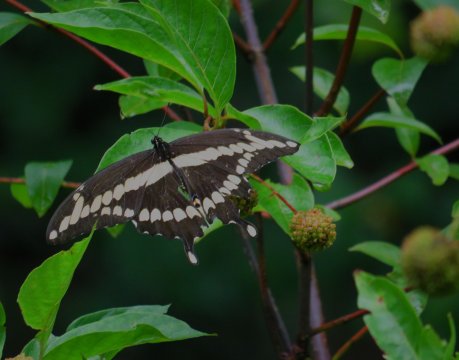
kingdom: Animalia
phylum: Arthropoda
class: Insecta
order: Lepidoptera
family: Papilionidae
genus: Papilio
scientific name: Papilio cresphontes
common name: Eastern Giant Swallowtail
